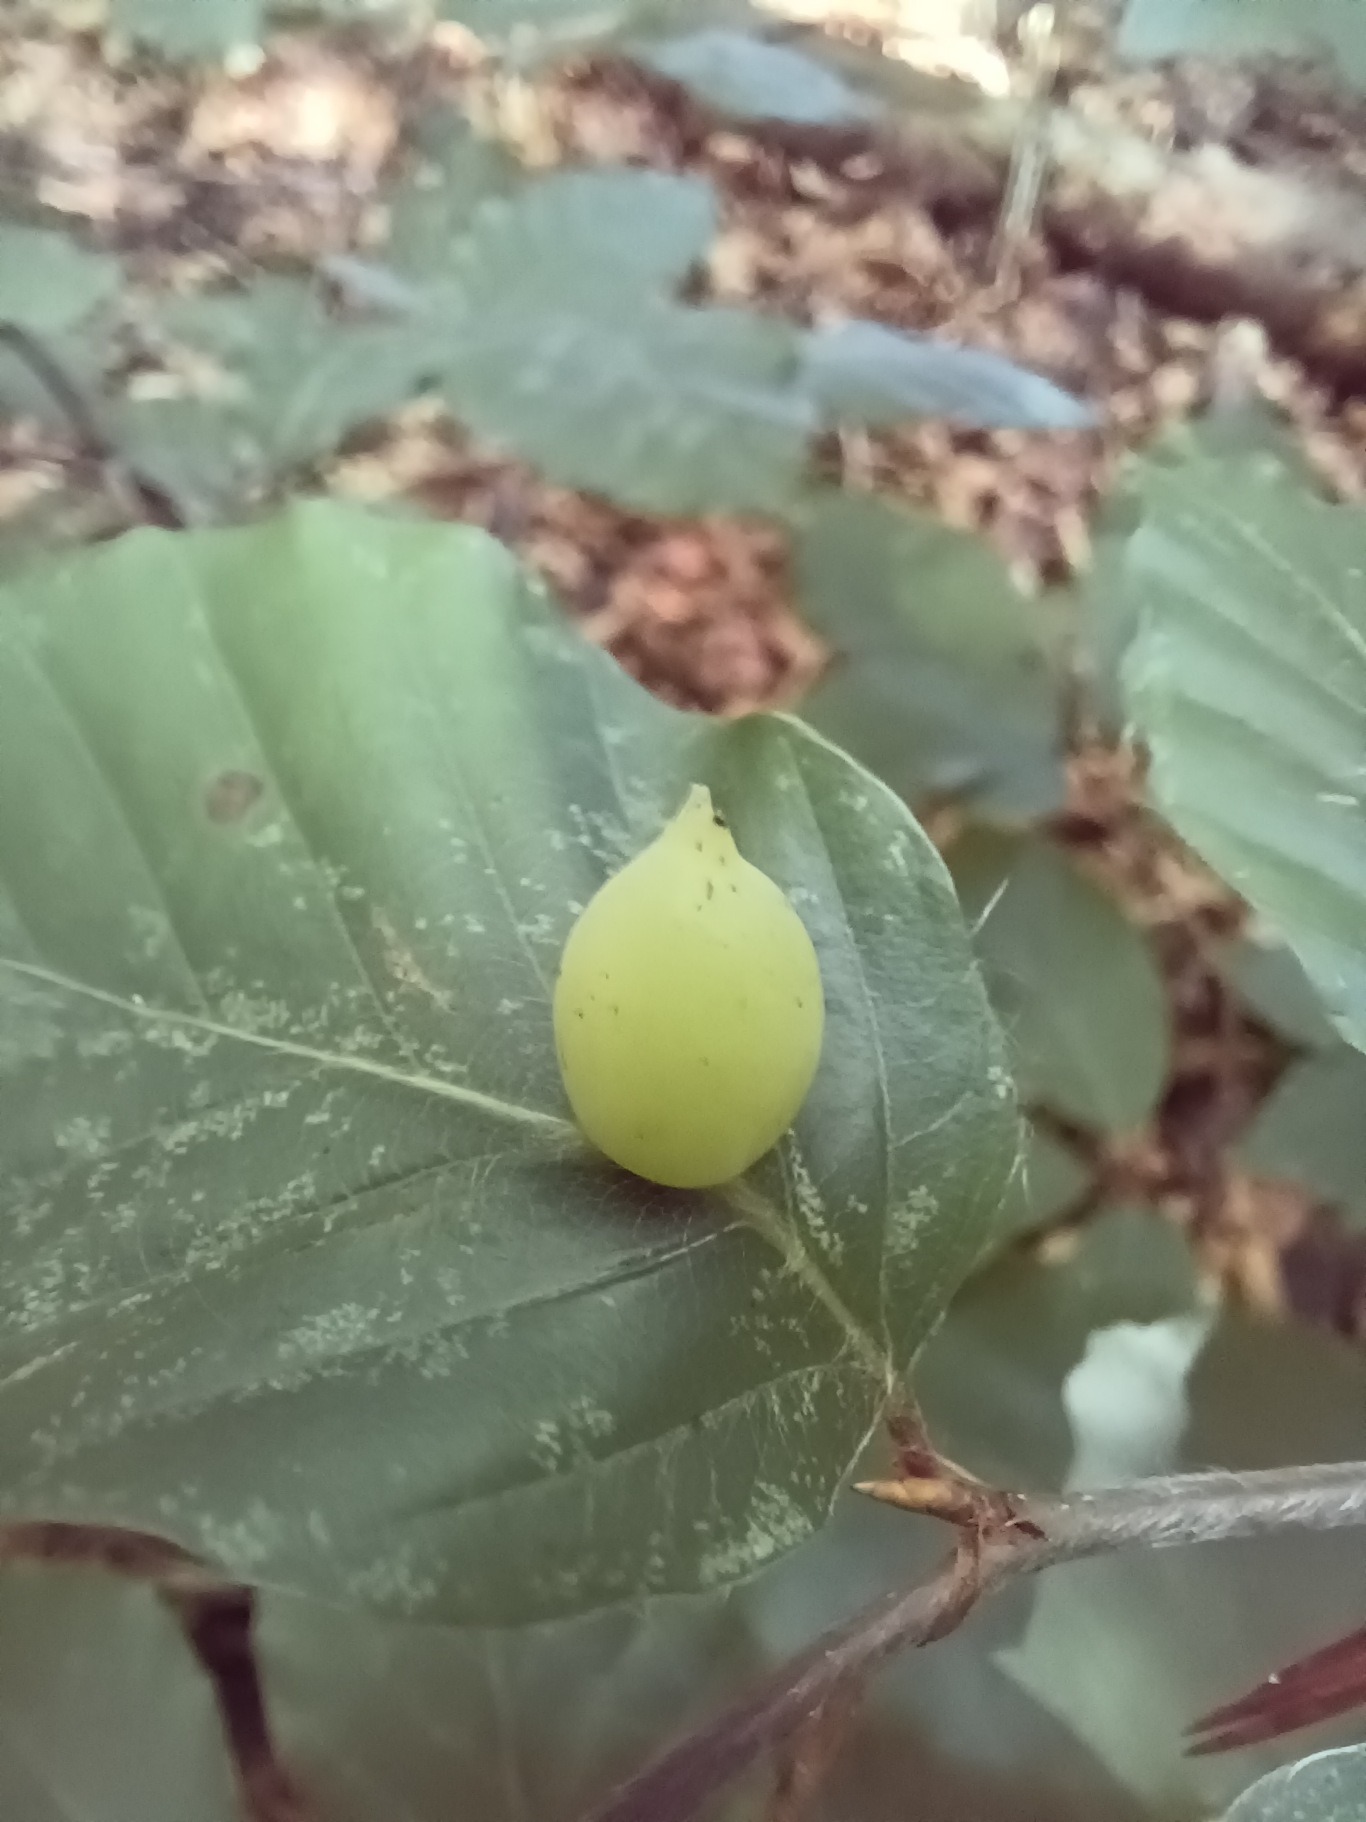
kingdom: Animalia
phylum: Arthropoda
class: Insecta
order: Diptera
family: Cecidomyiidae
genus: Mikiola
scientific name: Mikiola fagi
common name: Bøgegalmyg
